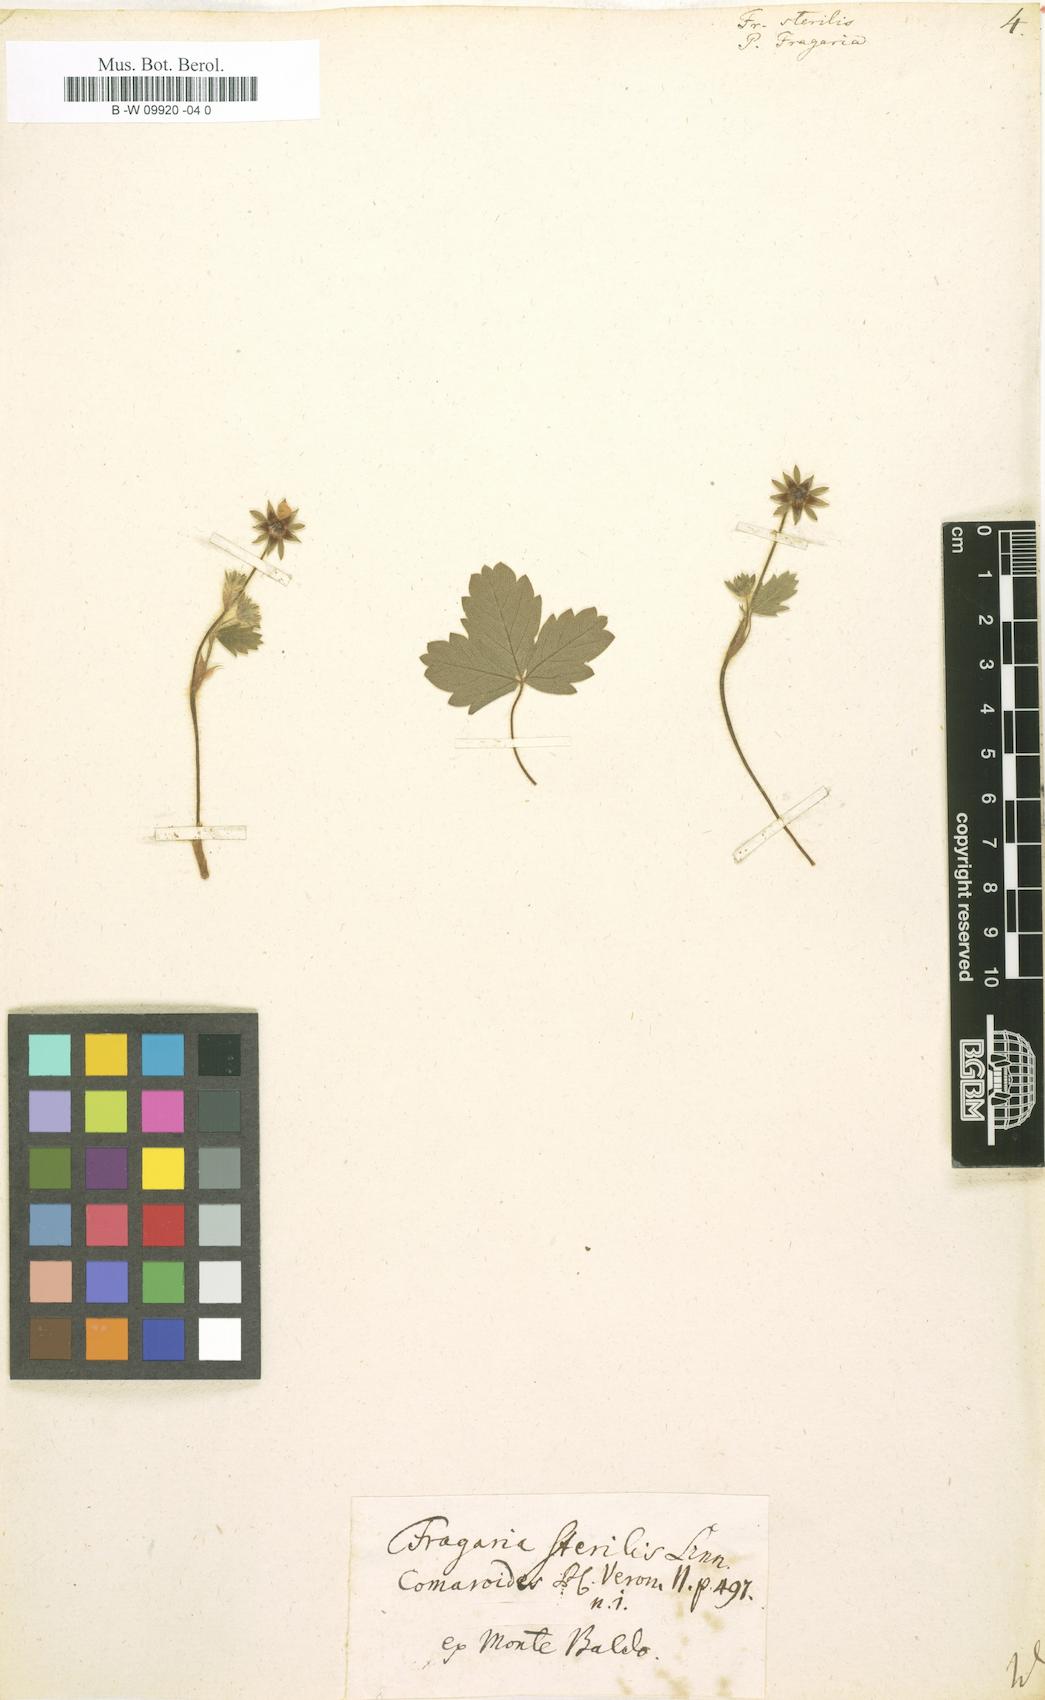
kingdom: Plantae
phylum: Tracheophyta
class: Magnoliopsida
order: Rosales
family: Rosaceae
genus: Potentilla
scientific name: Potentilla sterilis
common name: Barren strawberry
